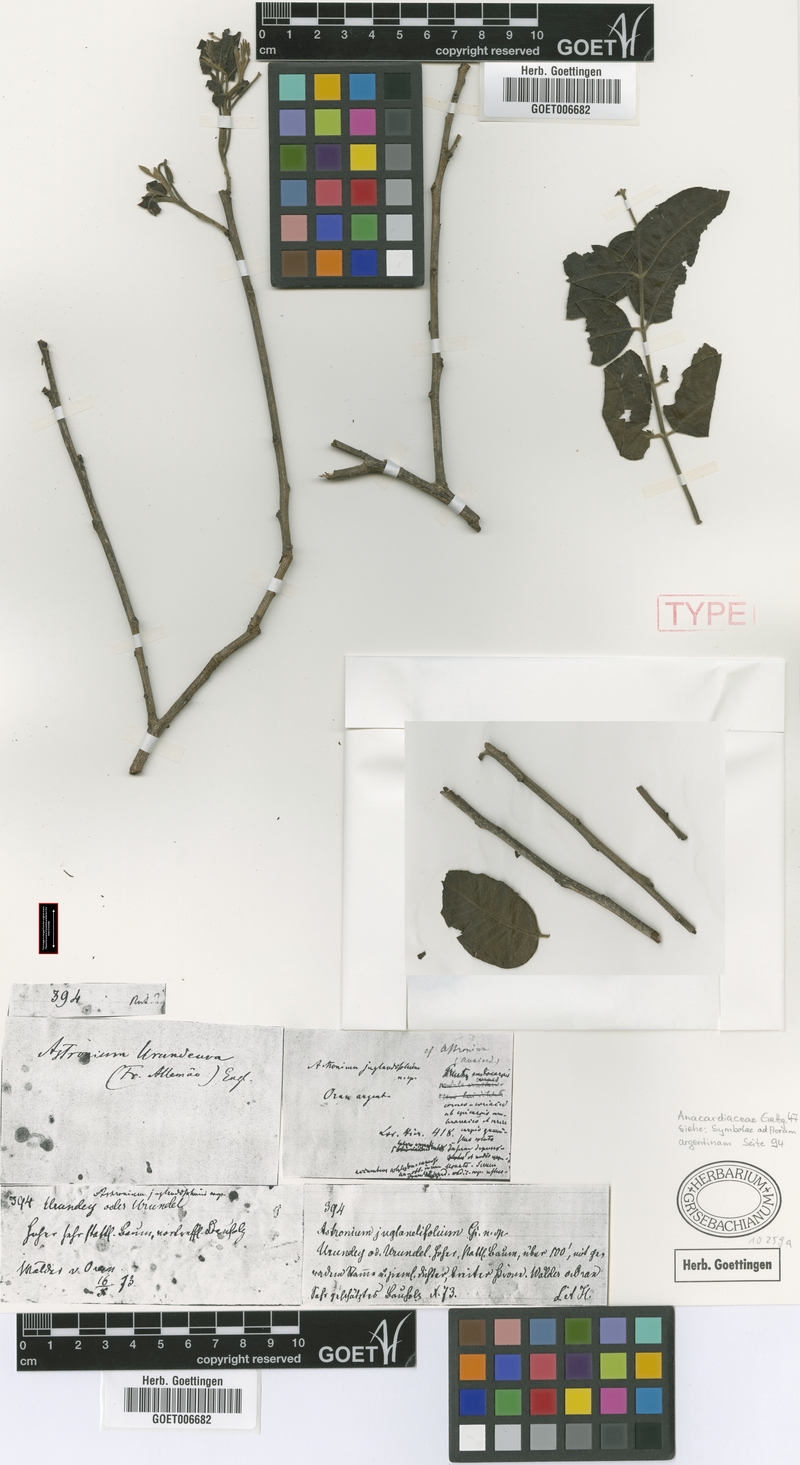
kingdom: Plantae
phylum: Tracheophyta
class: Magnoliopsida
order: Sapindales
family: Anacardiaceae
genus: Myracrodruon
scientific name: Myracrodruon urundeuva
